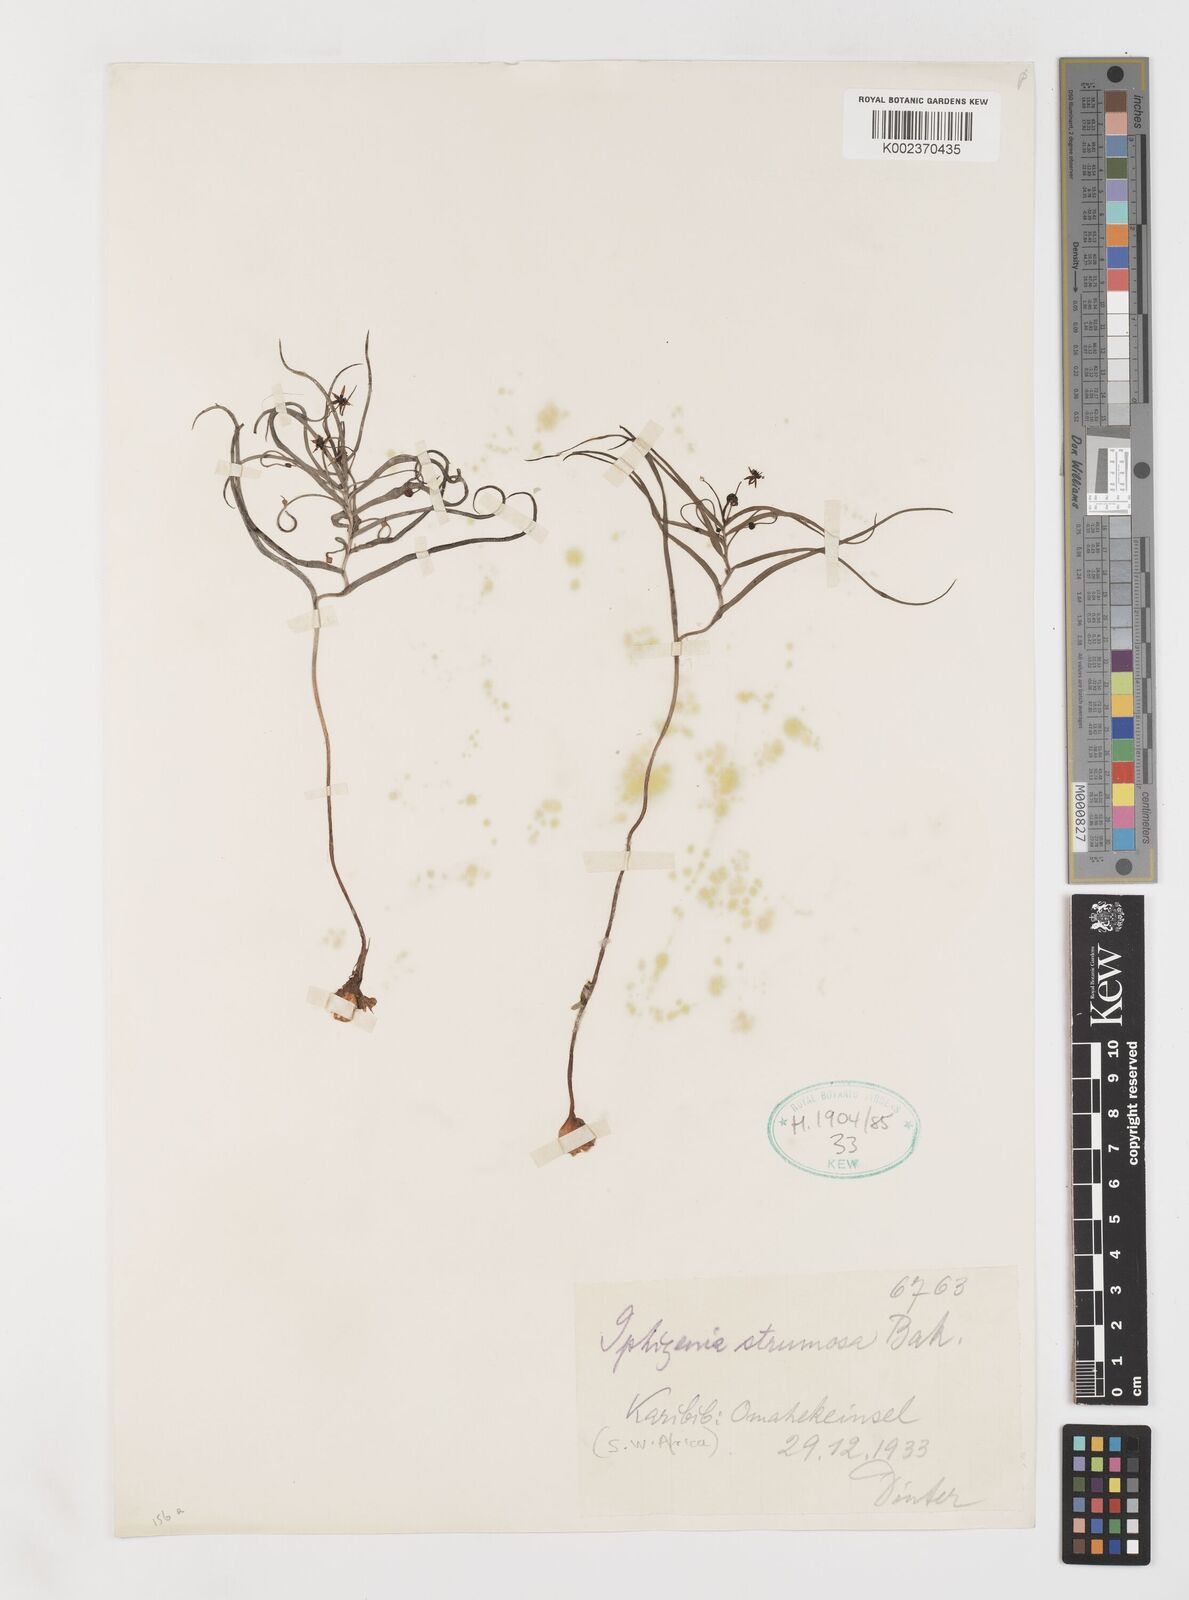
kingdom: Plantae
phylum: Tracheophyta
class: Liliopsida
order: Liliales
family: Colchicaceae
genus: Camptorrhiza
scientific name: Camptorrhiza strumosa
